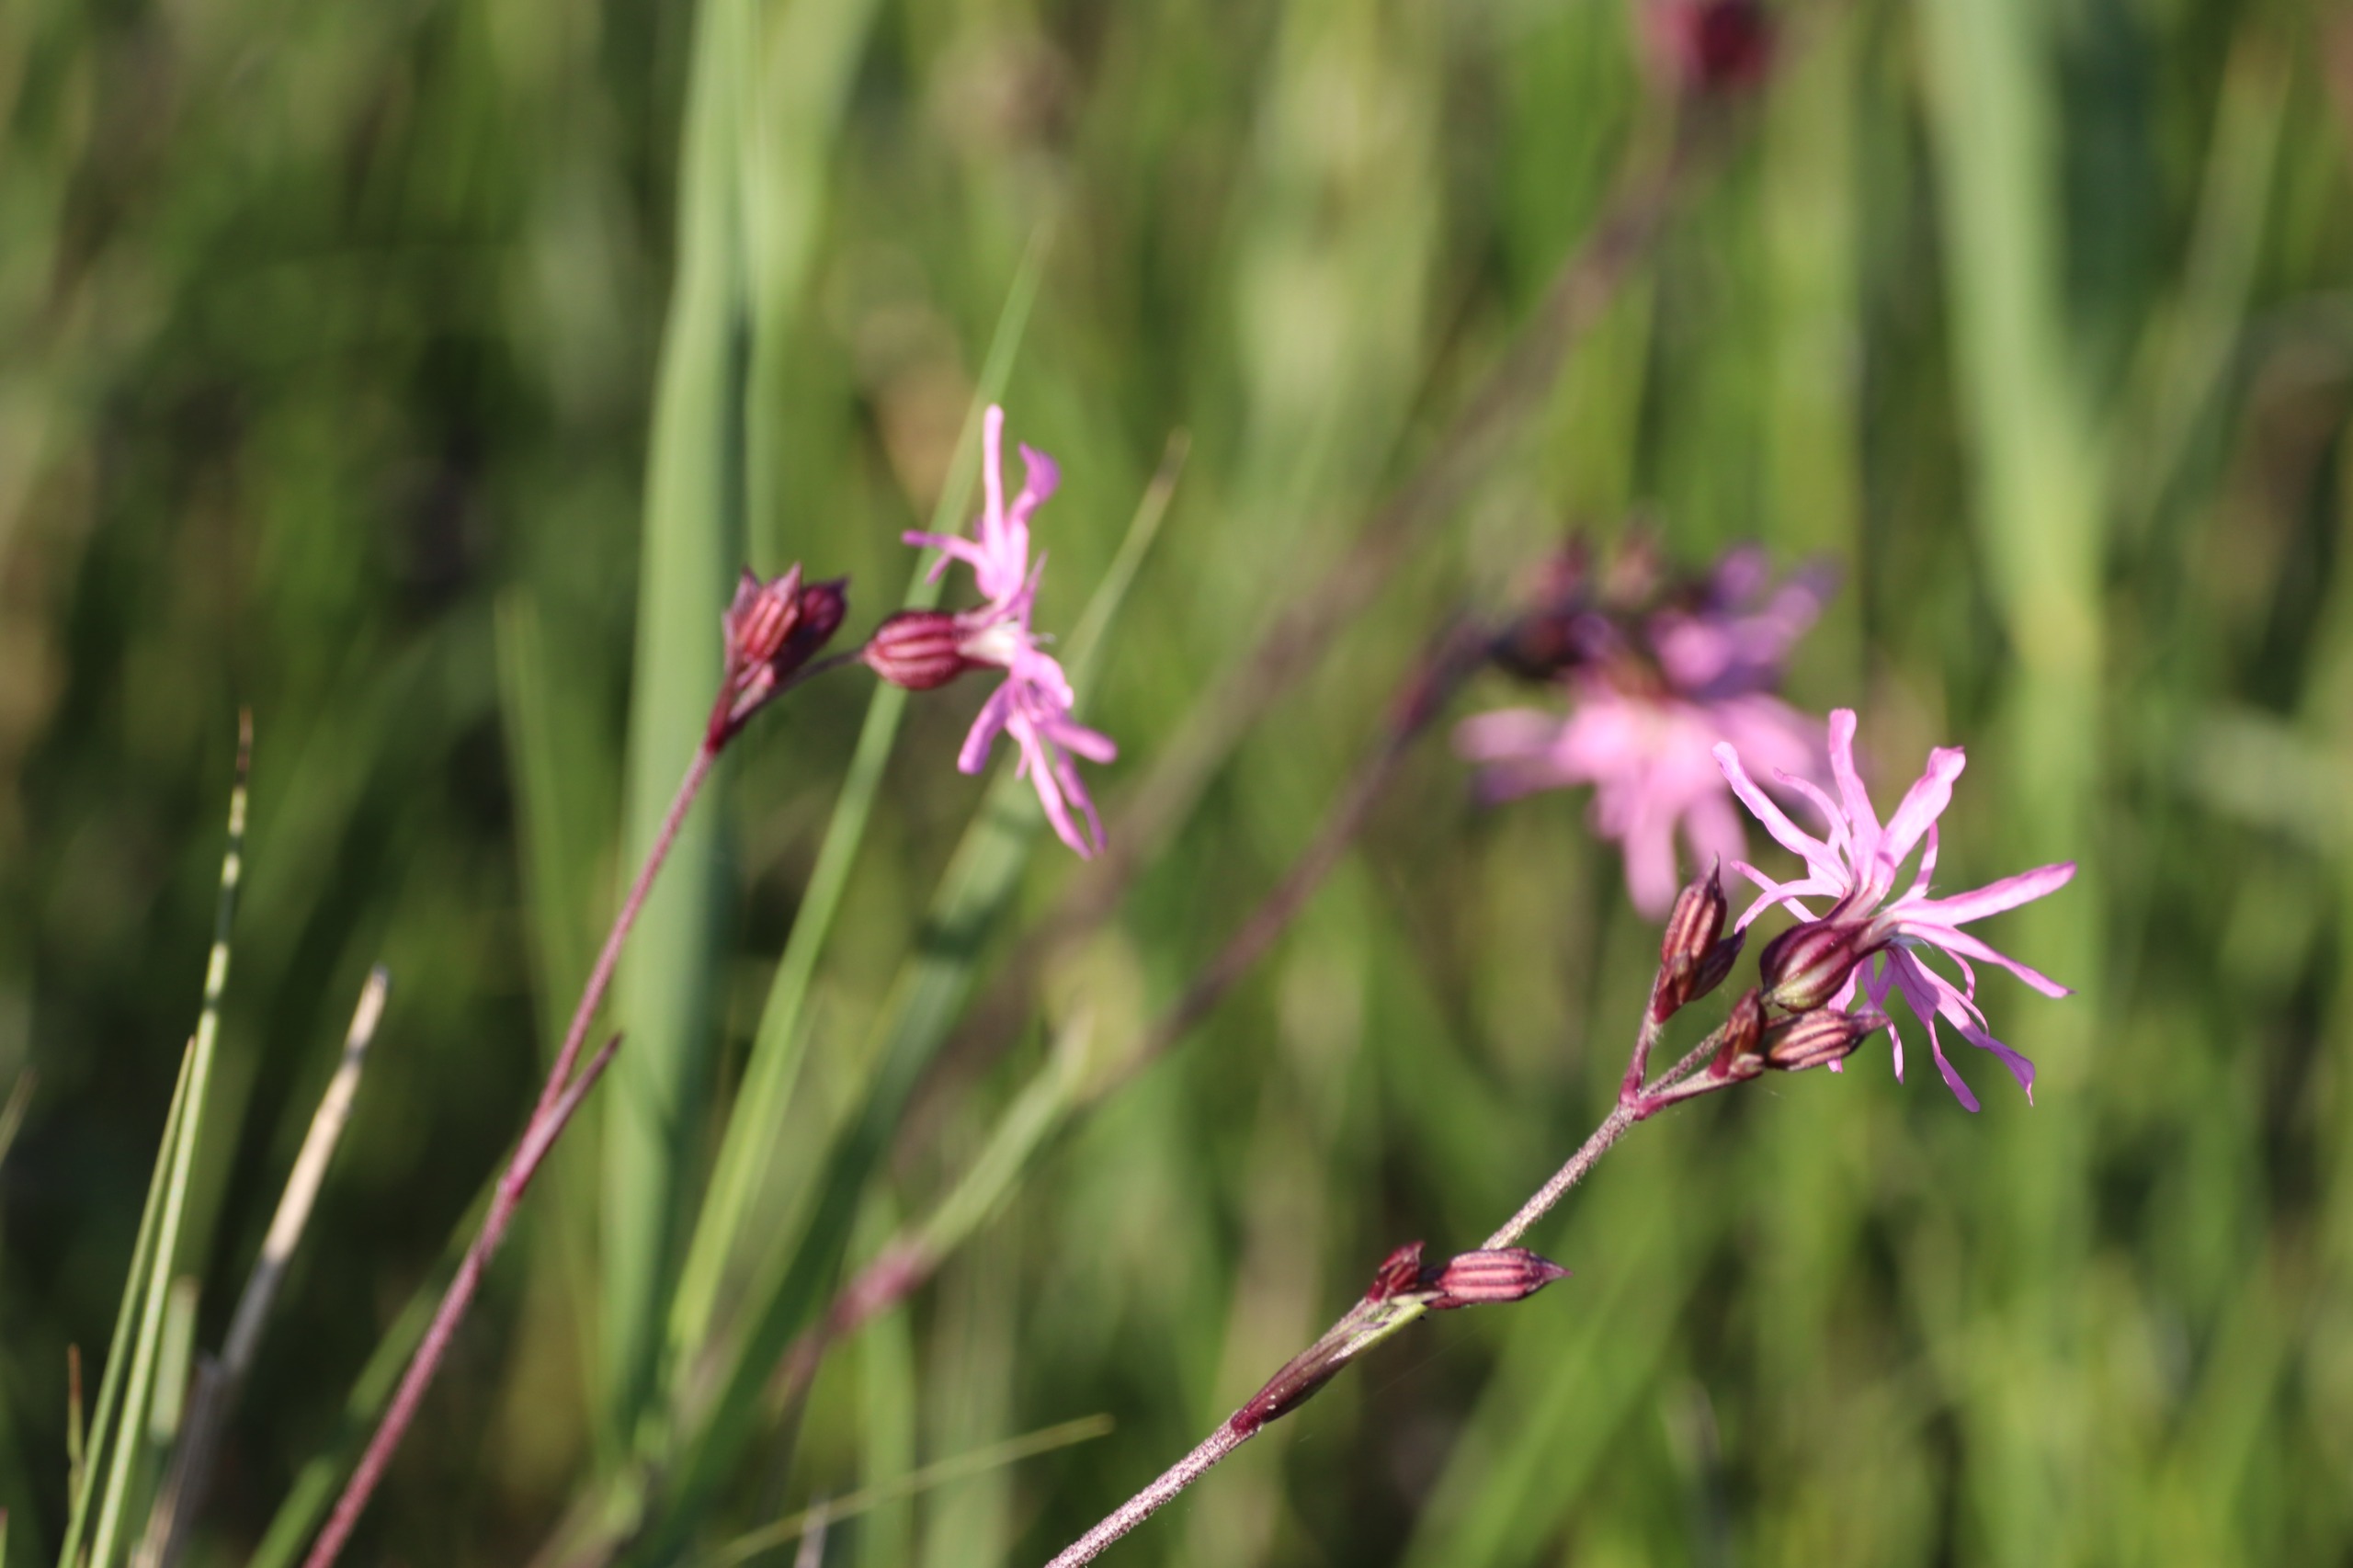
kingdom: Plantae
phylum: Tracheophyta
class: Magnoliopsida
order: Caryophyllales
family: Caryophyllaceae
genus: Silene
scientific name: Silene flos-cuculi
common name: Trævlekrone
